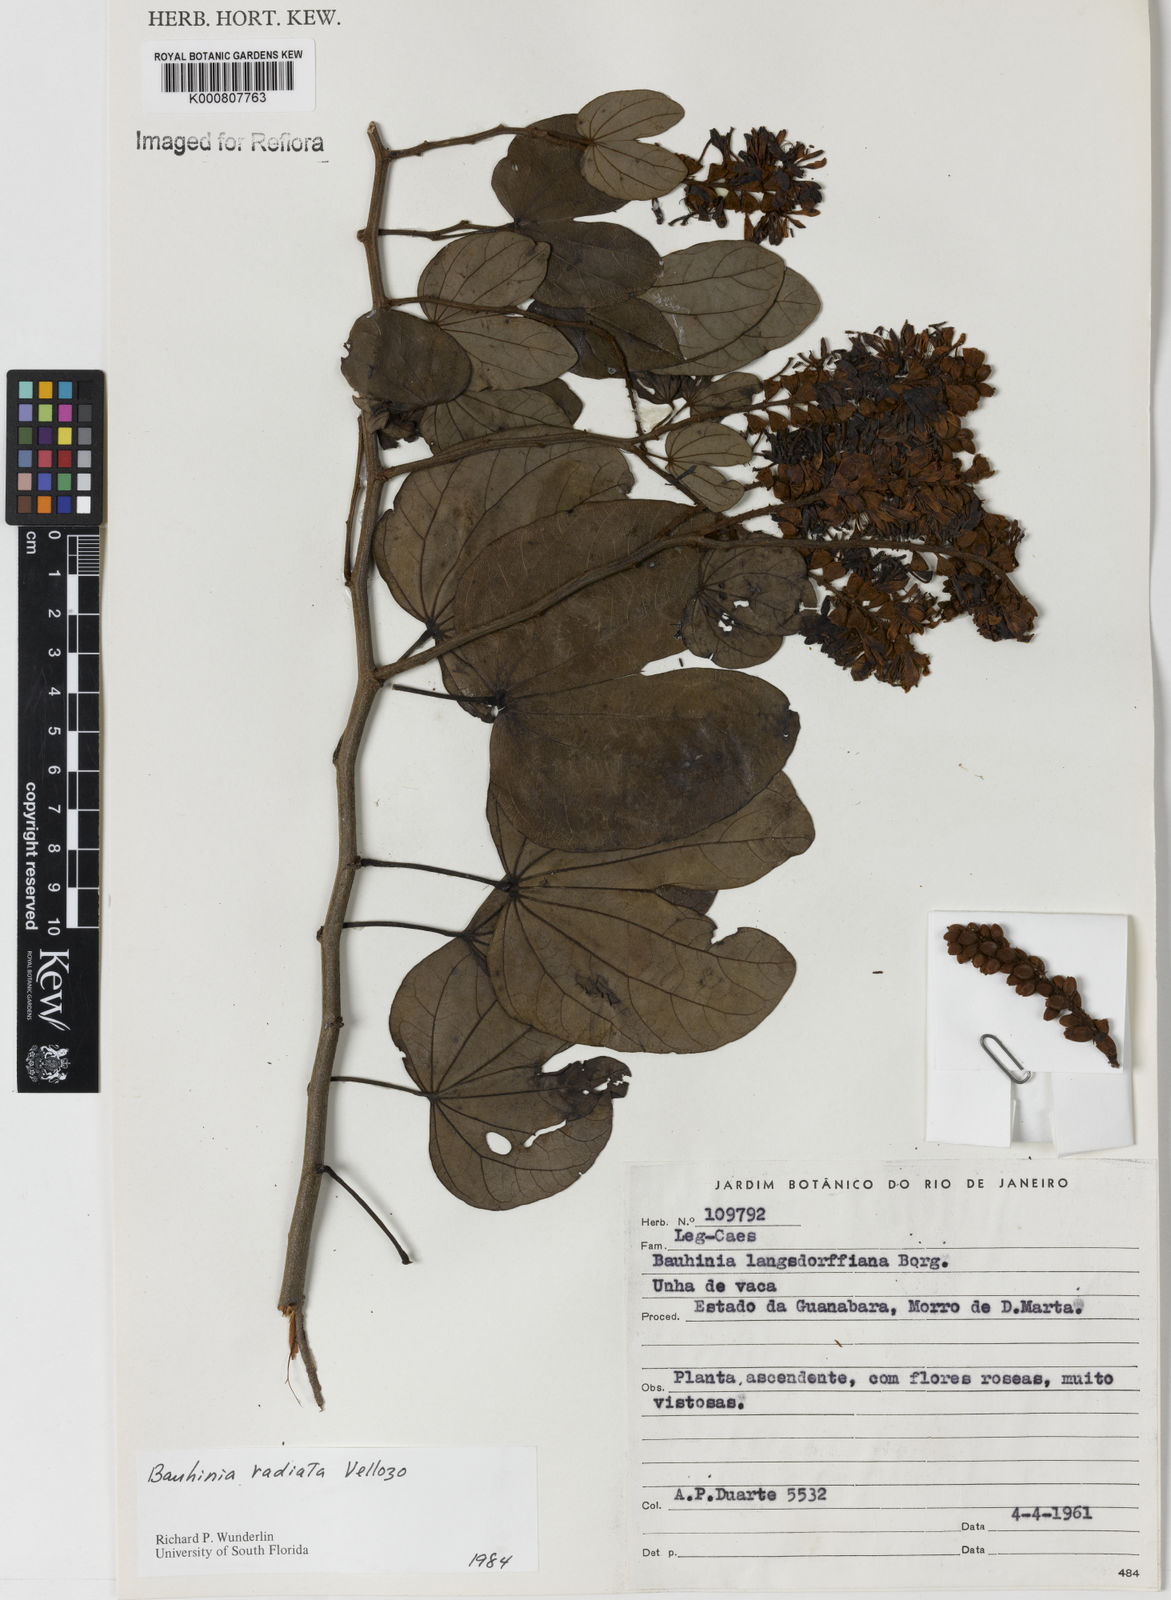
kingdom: Plantae
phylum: Tracheophyta
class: Magnoliopsida
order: Fabales
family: Fabaceae
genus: Schnella
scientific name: Schnella macrostachya
